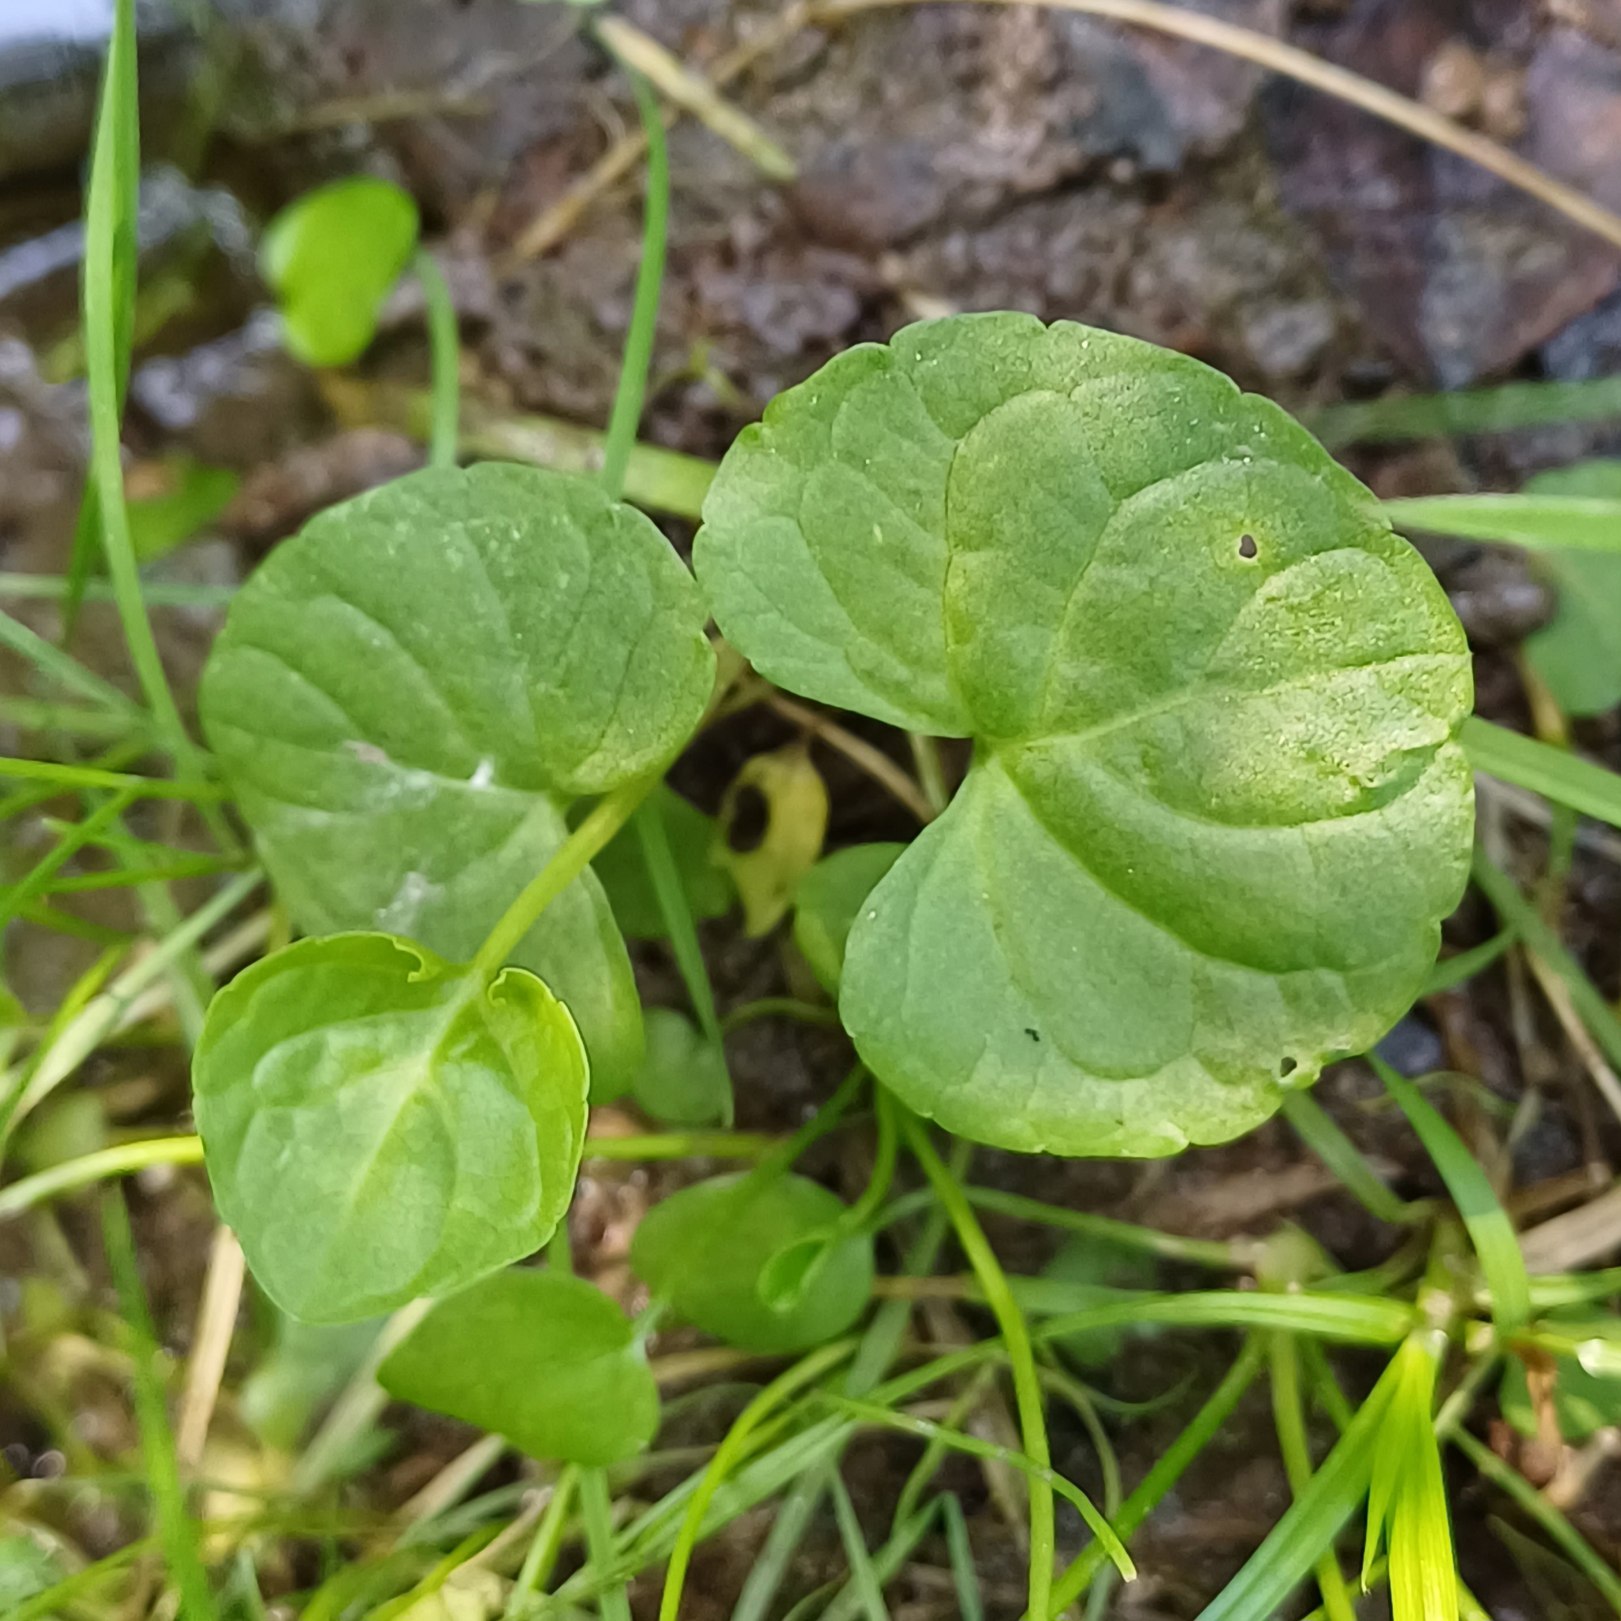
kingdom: Plantae
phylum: Tracheophyta
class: Magnoliopsida
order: Malpighiales
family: Violaceae
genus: Viola
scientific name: Viola palustris
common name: Eng-viol
